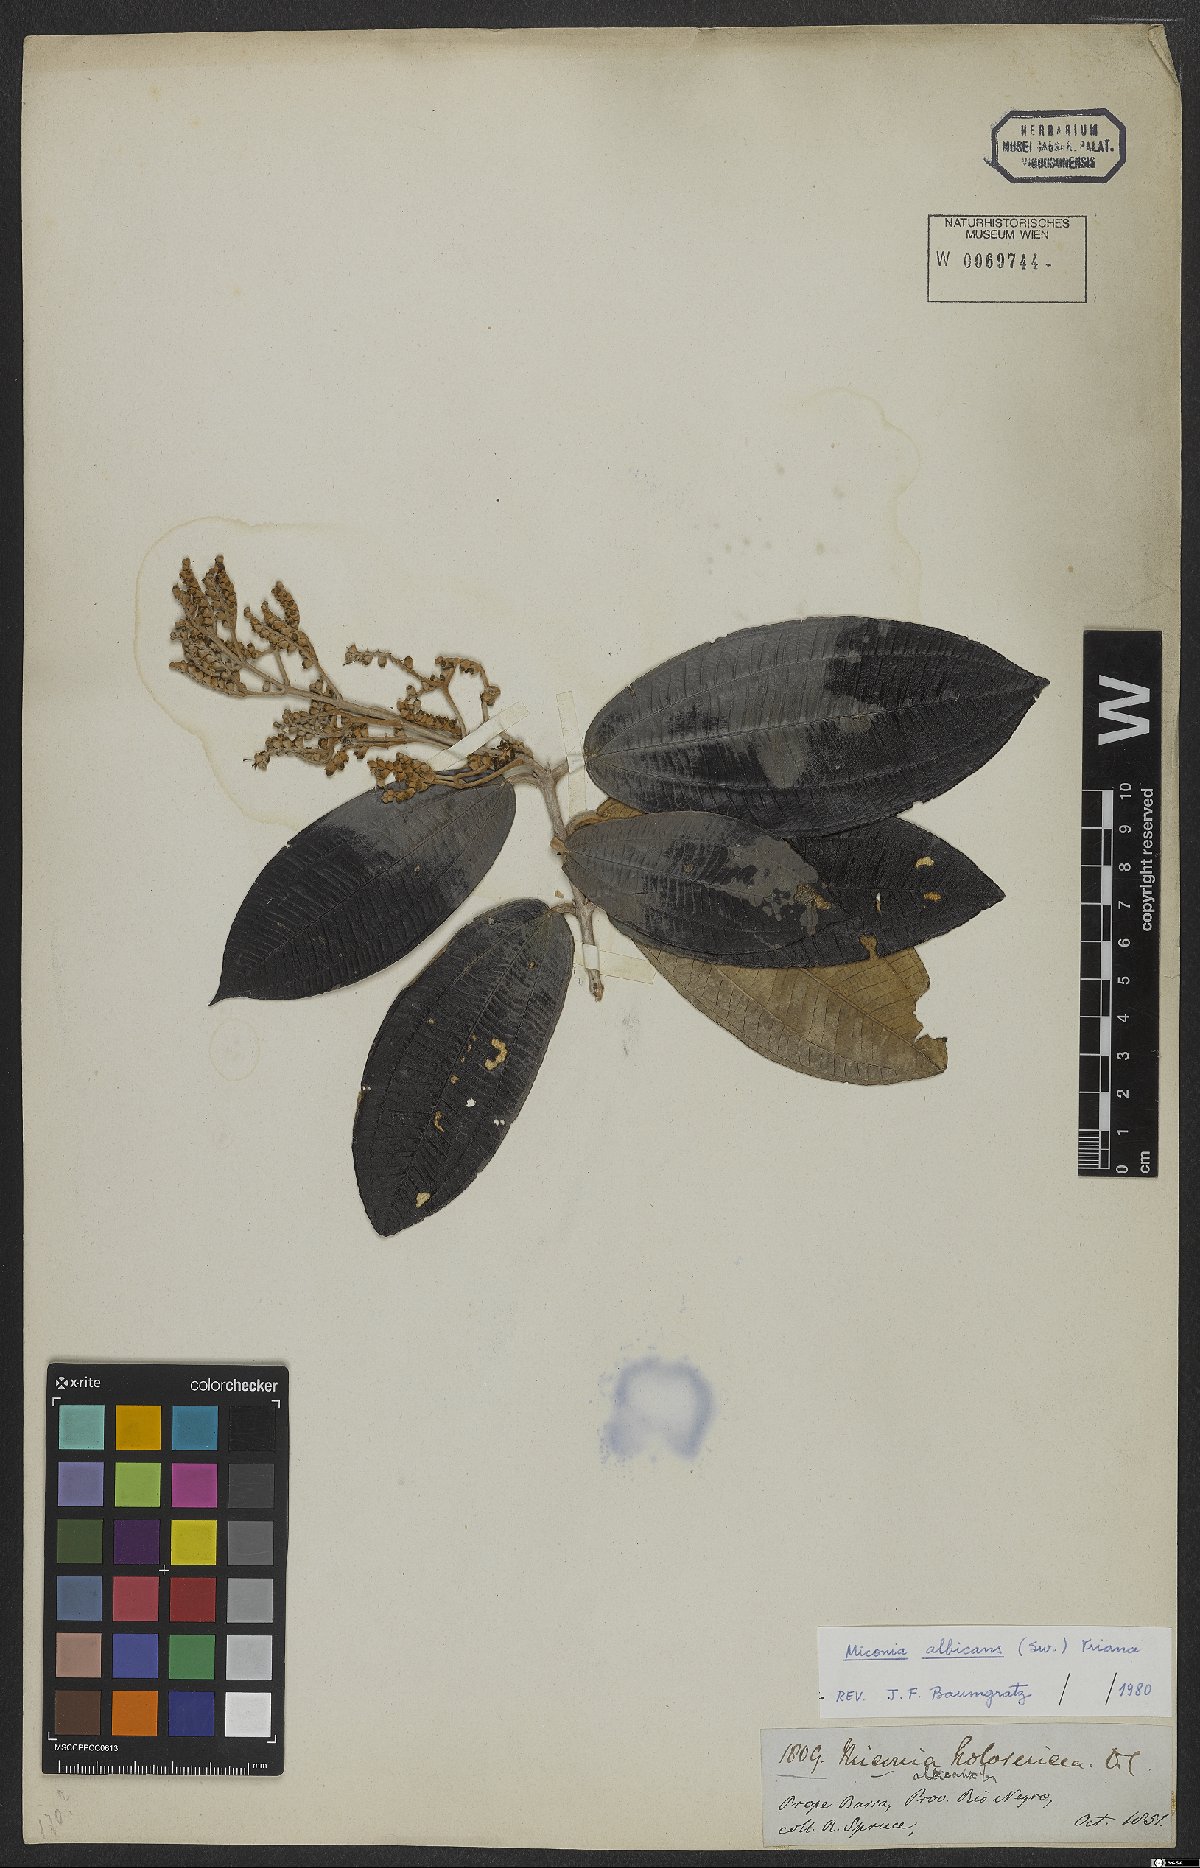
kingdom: Plantae
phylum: Tracheophyta
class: Magnoliopsida
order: Myrtales
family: Melastomataceae
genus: Miconia
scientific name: Miconia albicans
